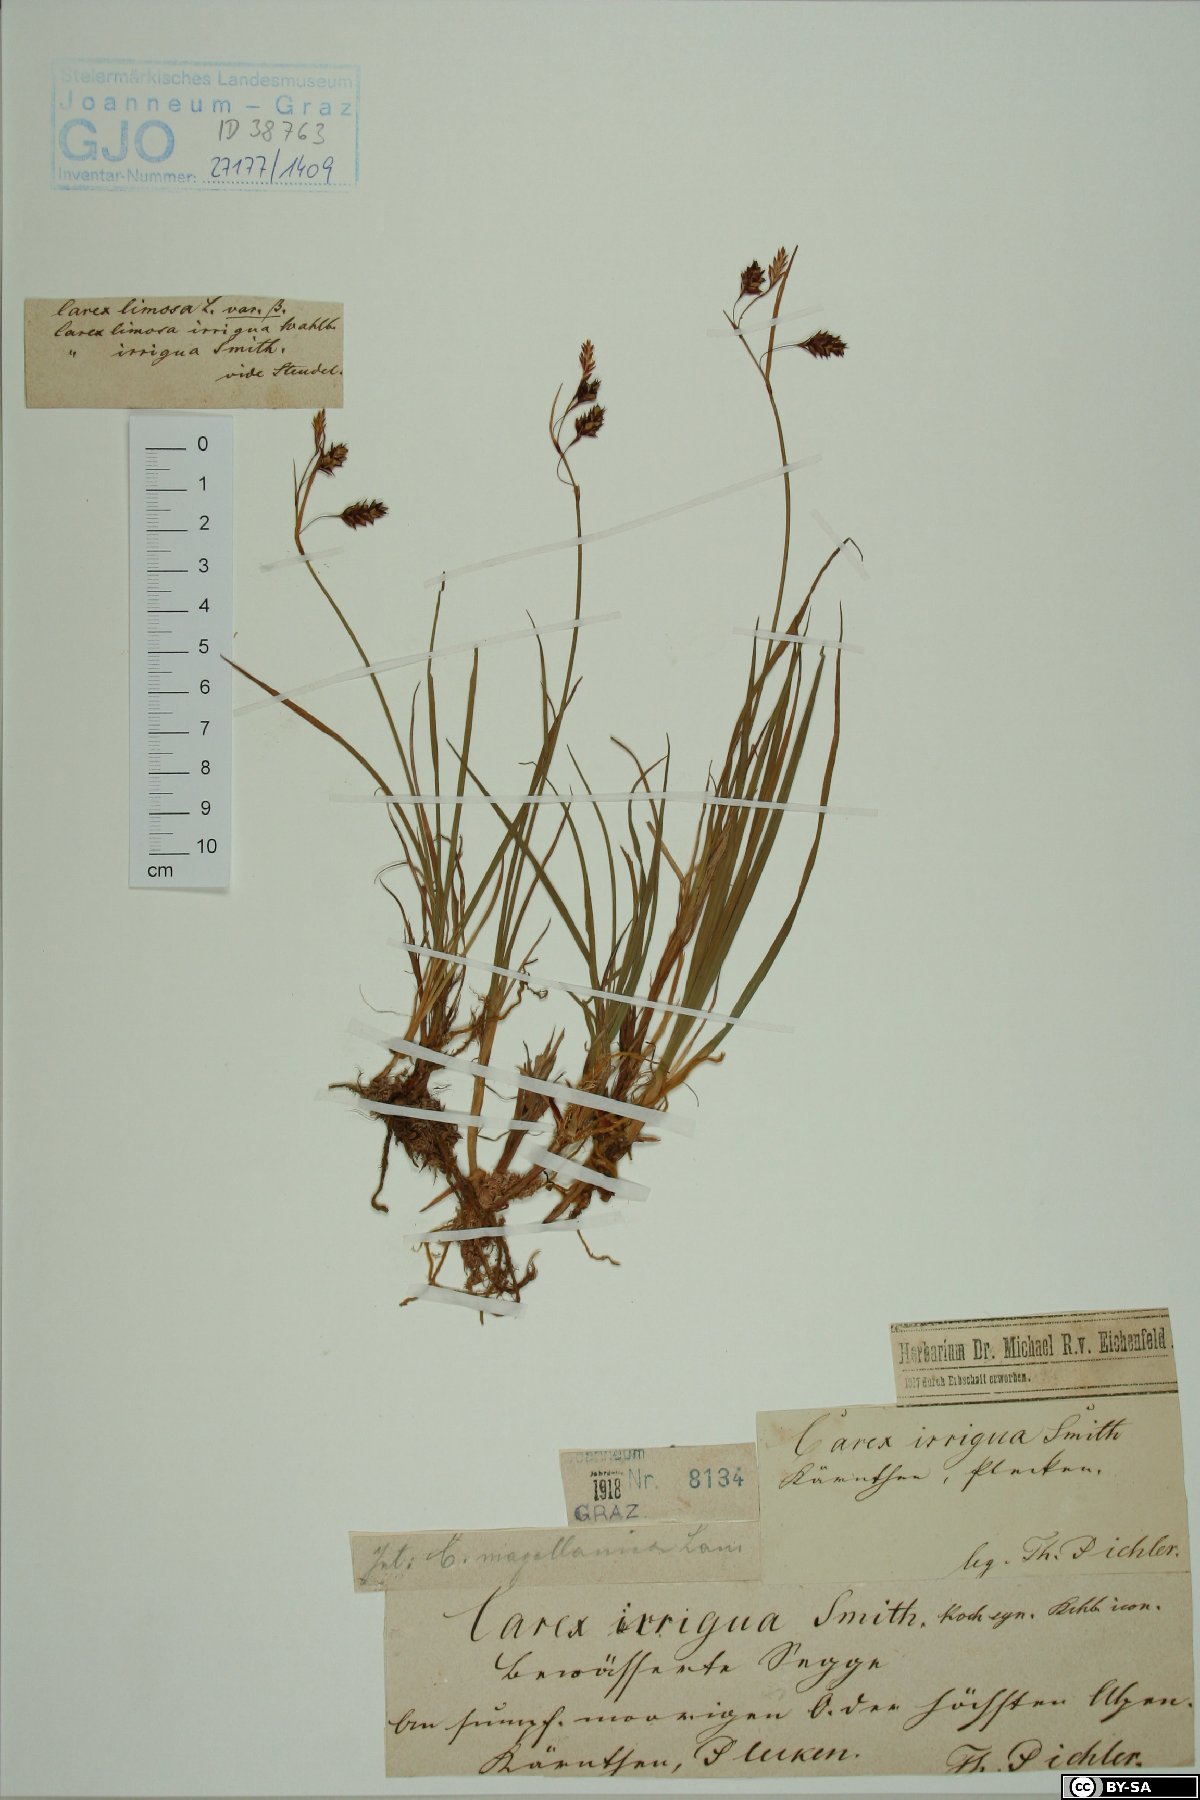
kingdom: Plantae
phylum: Tracheophyta
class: Liliopsida
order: Poales
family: Cyperaceae
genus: Carex
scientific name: Carex magellanica
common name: Bog sedge
